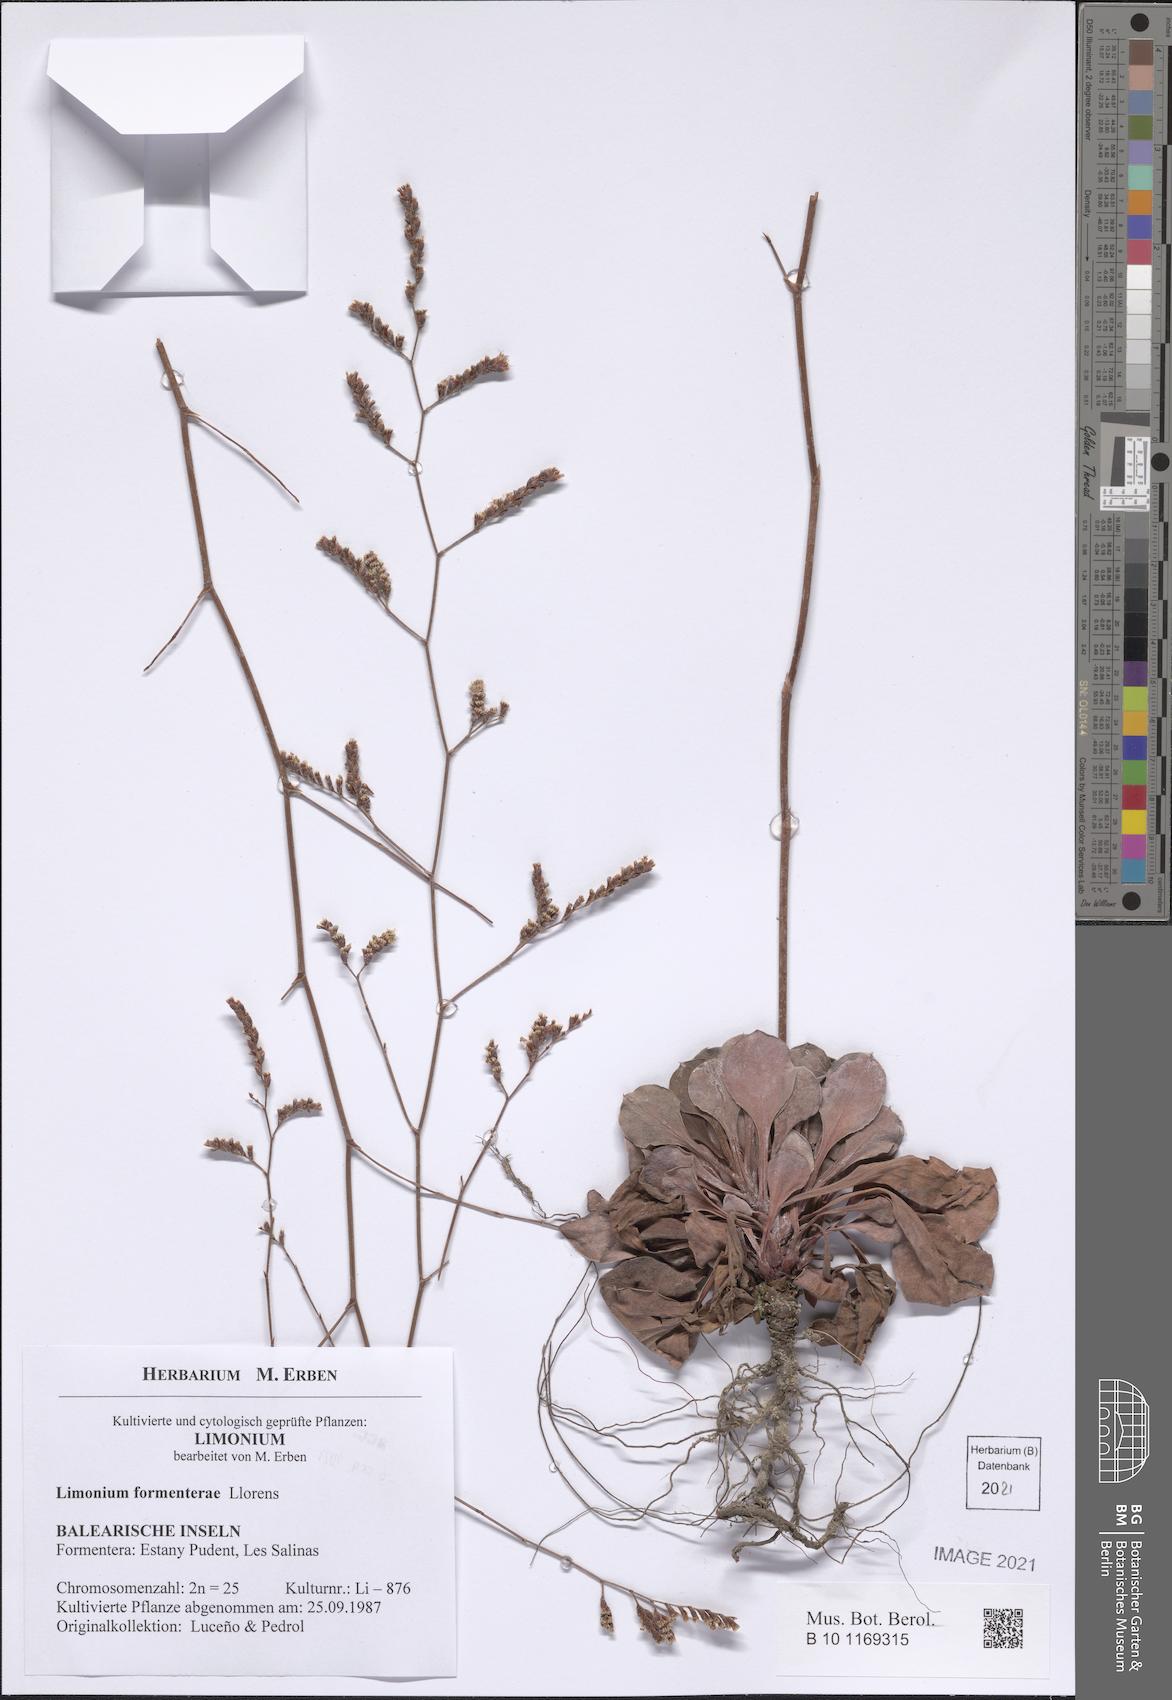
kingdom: Plantae
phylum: Tracheophyta
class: Magnoliopsida
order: Caryophyllales
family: Plumbaginaceae
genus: Limonium
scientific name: Limonium biflorum
